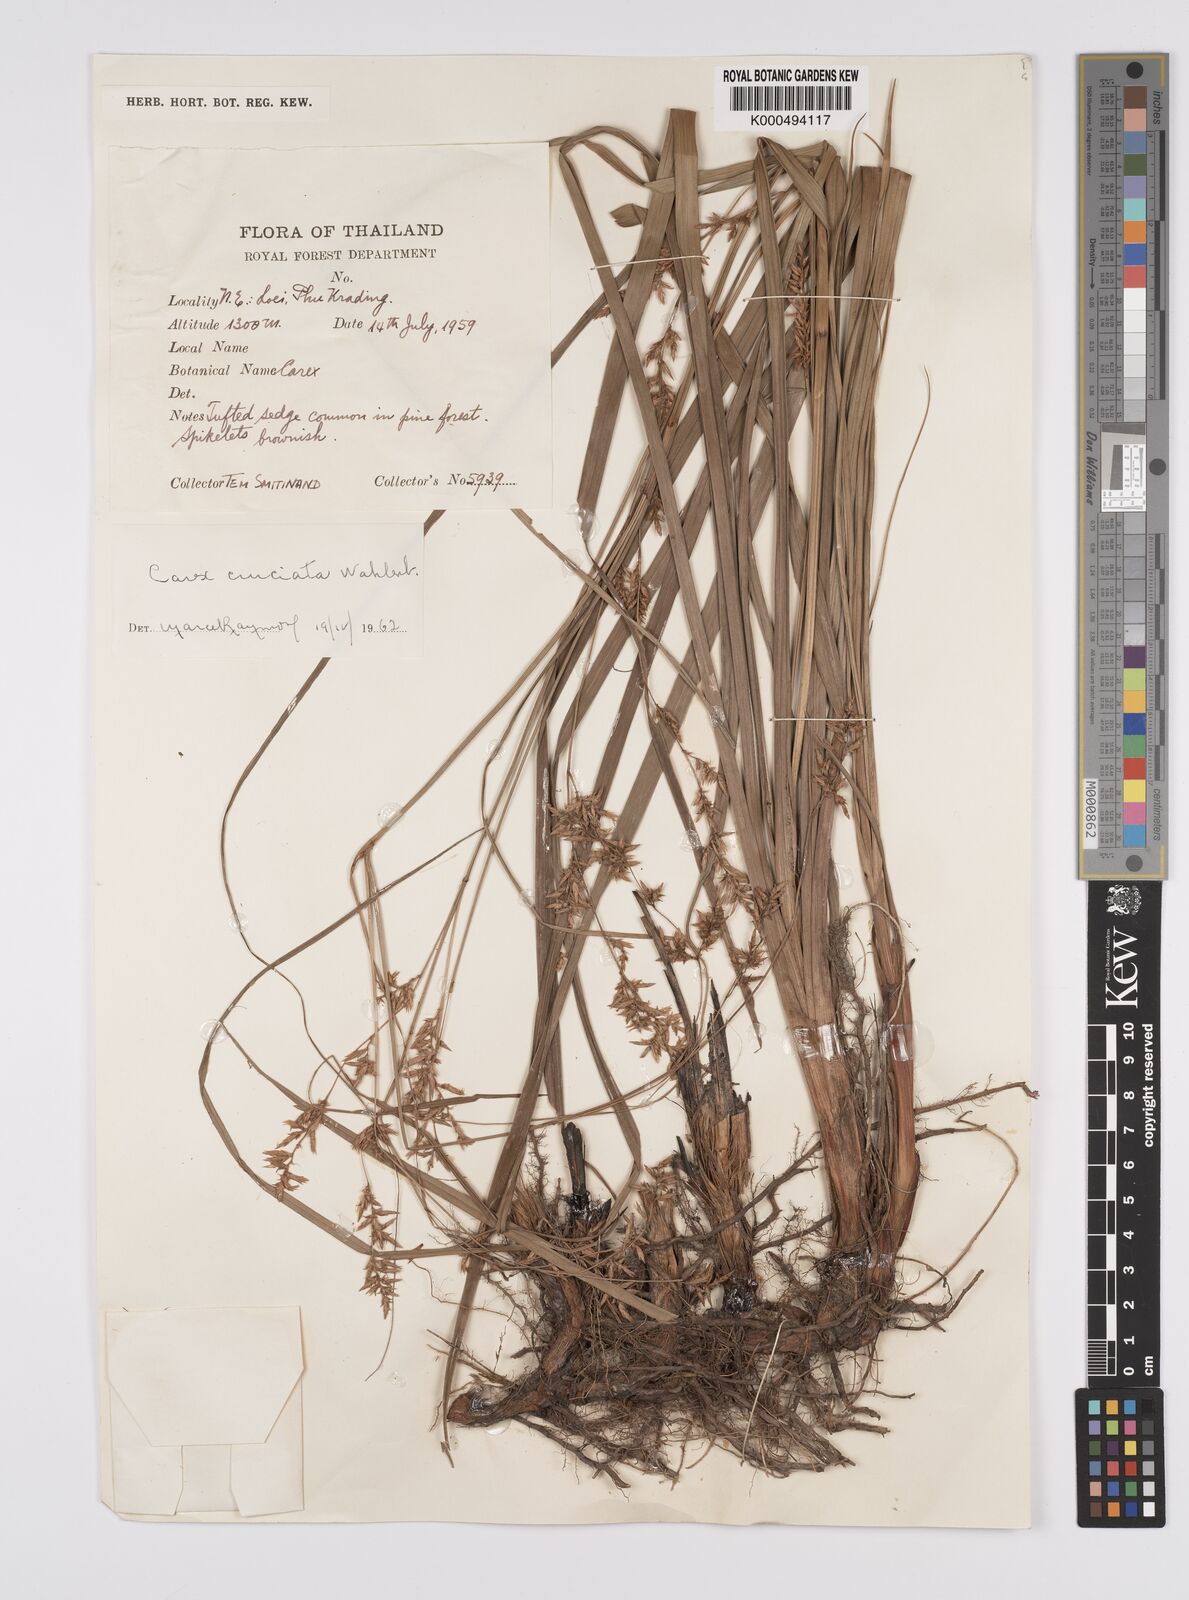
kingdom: Plantae
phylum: Tracheophyta
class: Liliopsida
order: Poales
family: Cyperaceae
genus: Carex
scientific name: Carex cruciata
